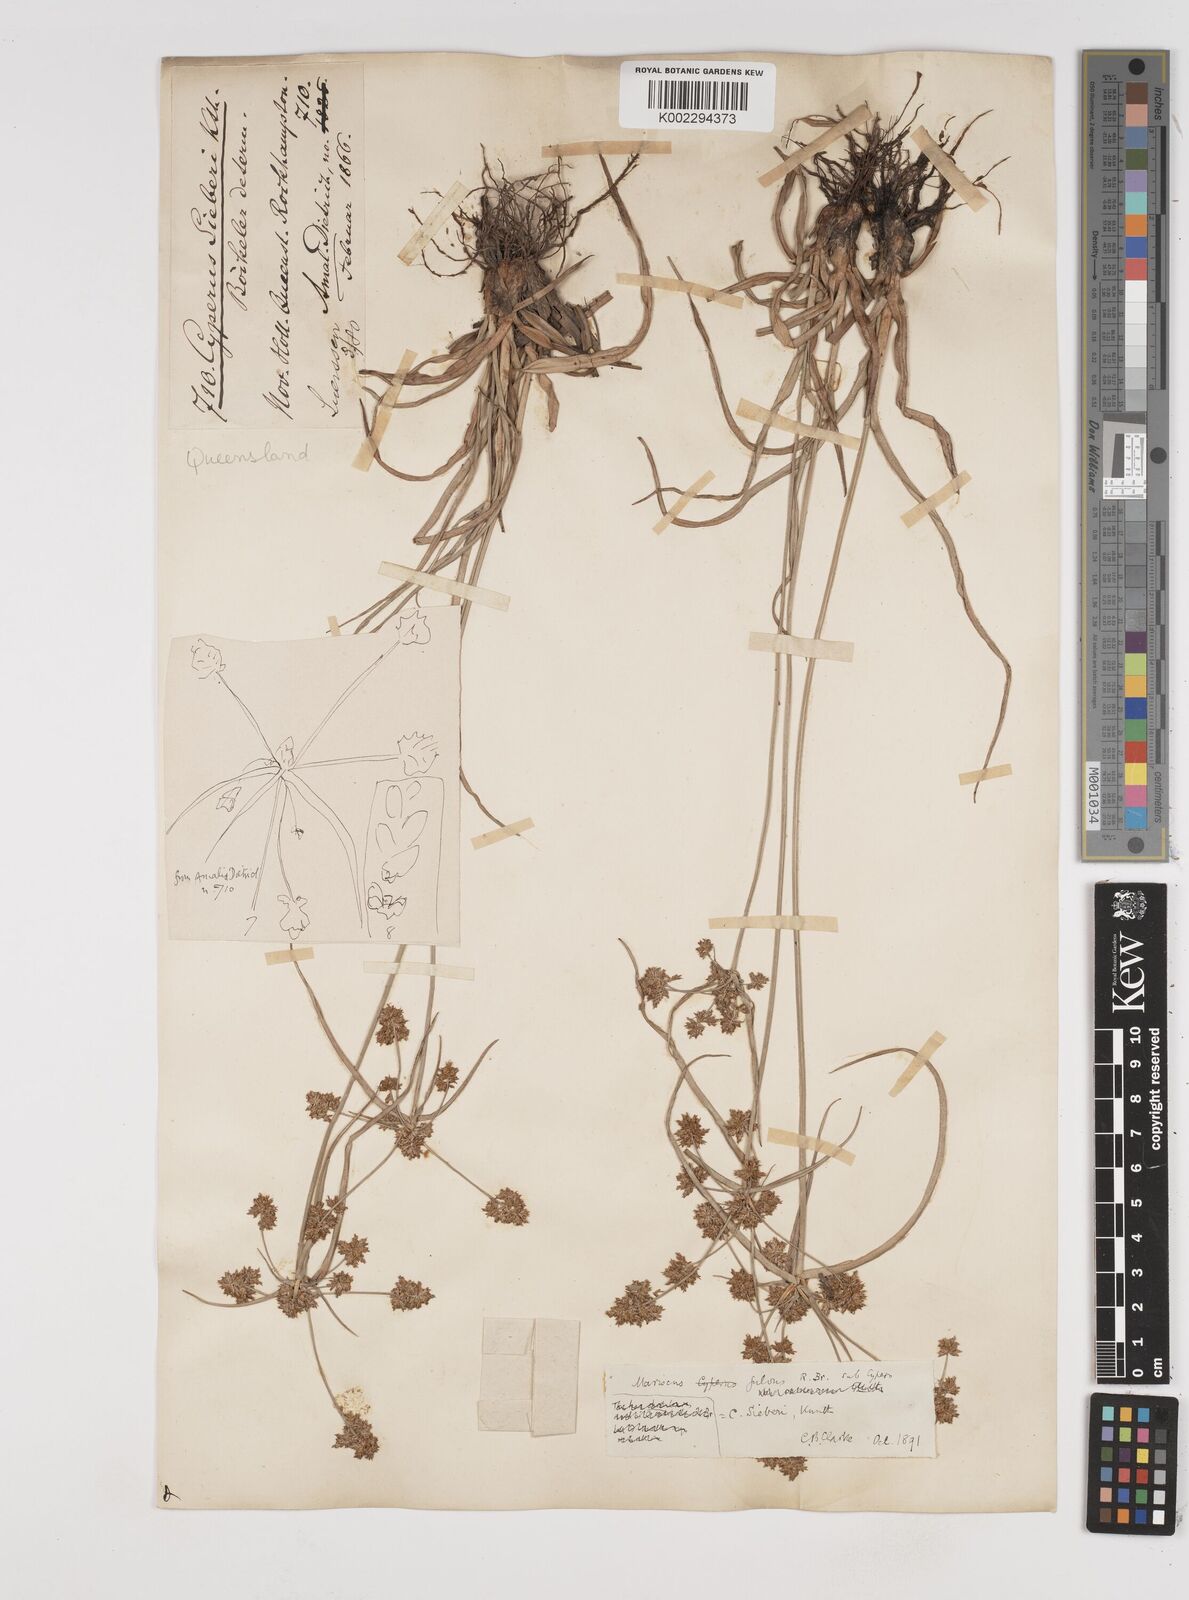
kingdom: Plantae
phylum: Tracheophyta
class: Liliopsida
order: Poales
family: Cyperaceae
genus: Cyperus
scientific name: Cyperus fulvus
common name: Sticky sedge
